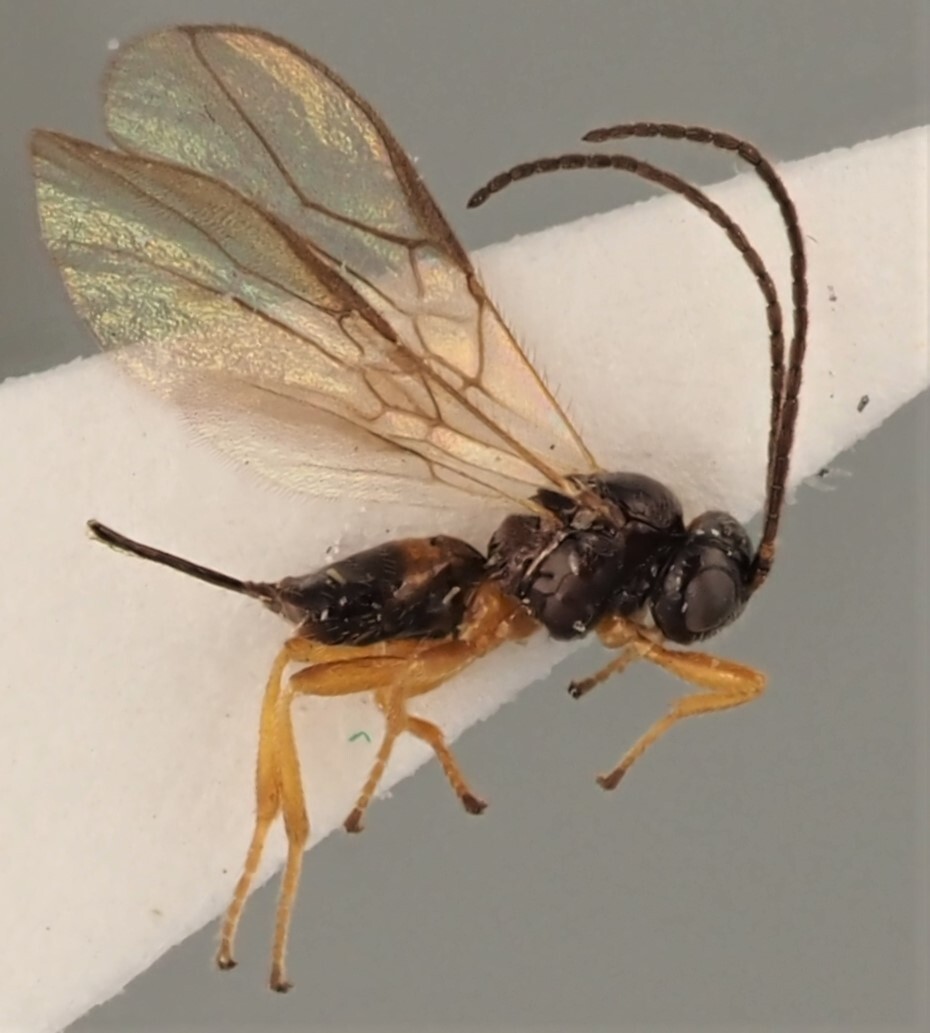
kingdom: Animalia
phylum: Arthropoda
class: Insecta
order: Hymenoptera
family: Braconidae
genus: Opius
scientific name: Opius inflammatus
